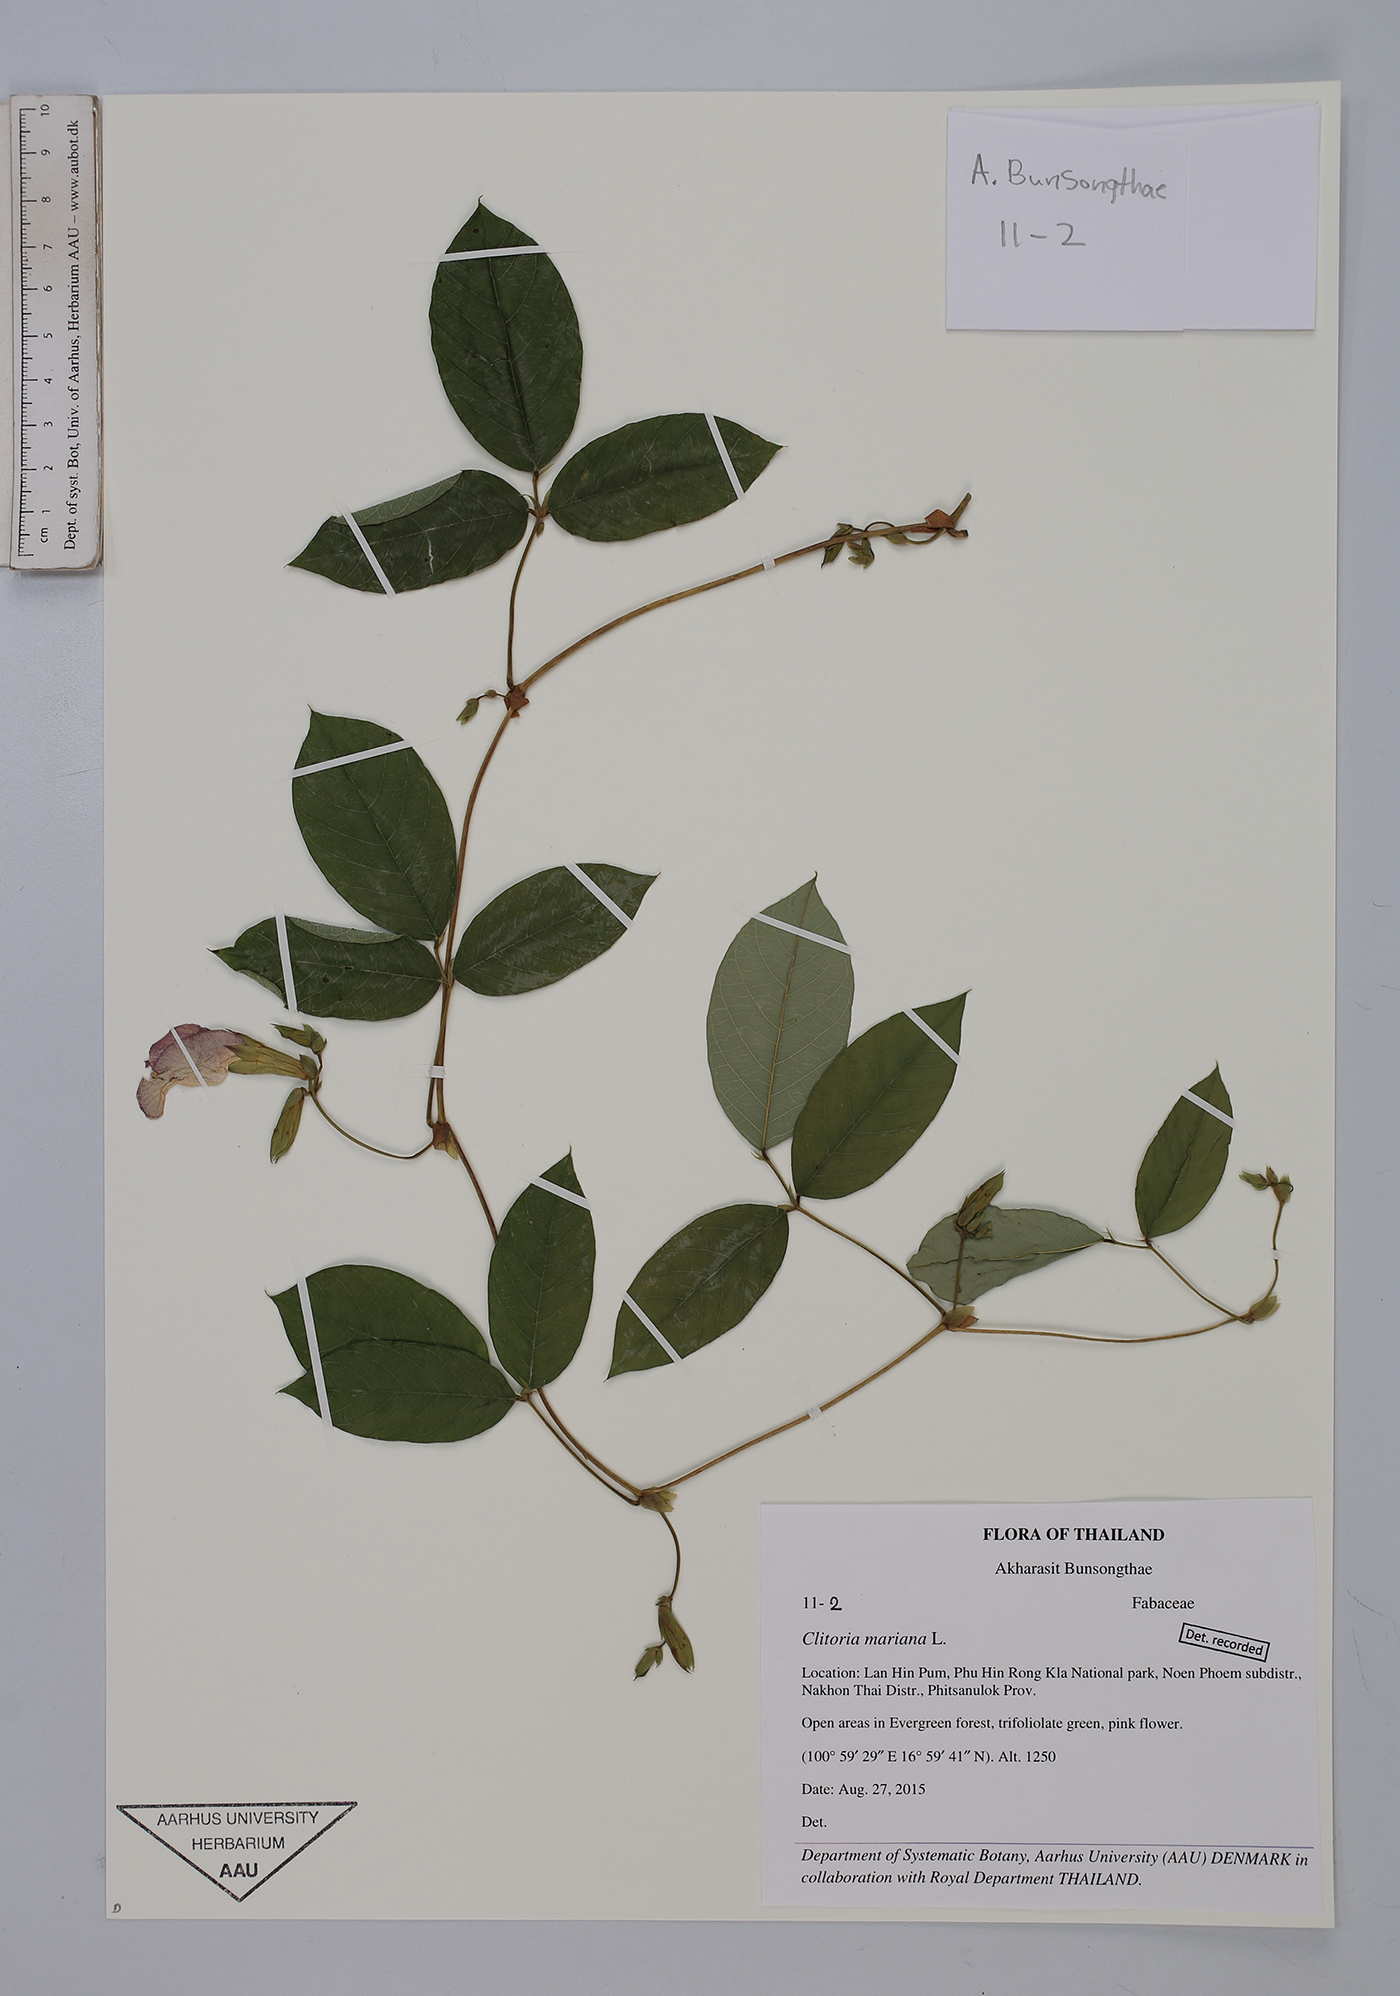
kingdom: Plantae
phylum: Tracheophyta
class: Magnoliopsida
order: Fabales
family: Fabaceae
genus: Clitoria
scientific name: Clitoria mariana
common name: Butterfly-pea
